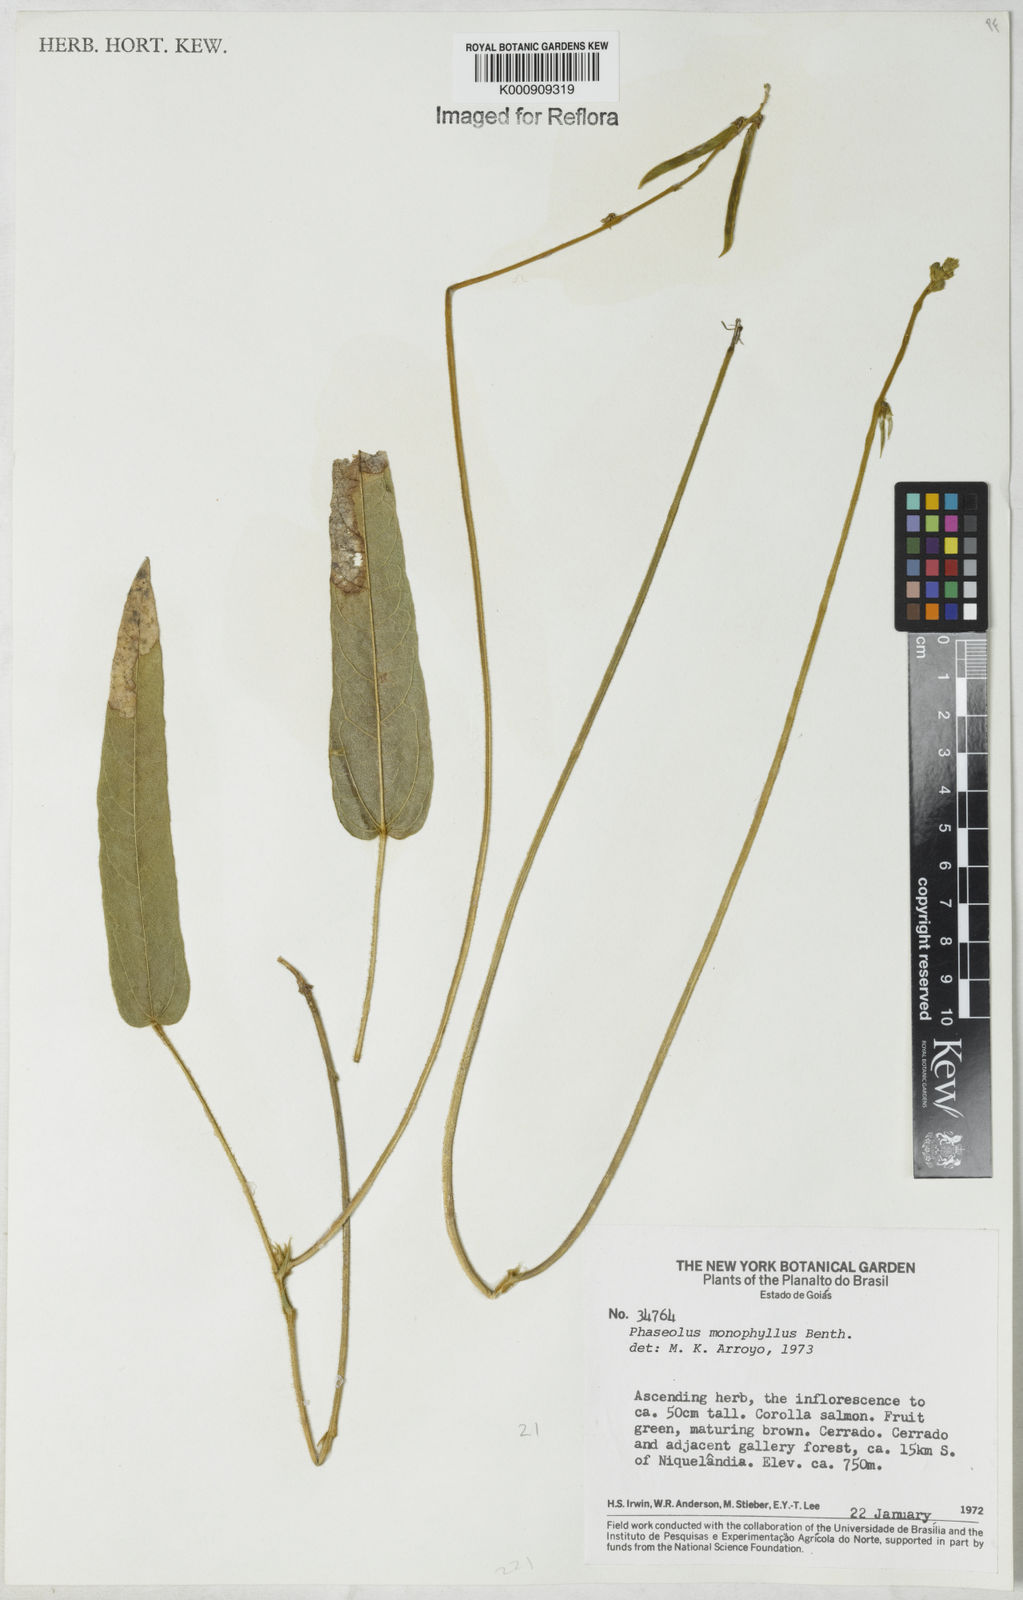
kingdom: Plantae
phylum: Tracheophyta
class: Magnoliopsida
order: Fabales
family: Fabaceae
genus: Macroptilium
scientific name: Macroptilium monophyllum
